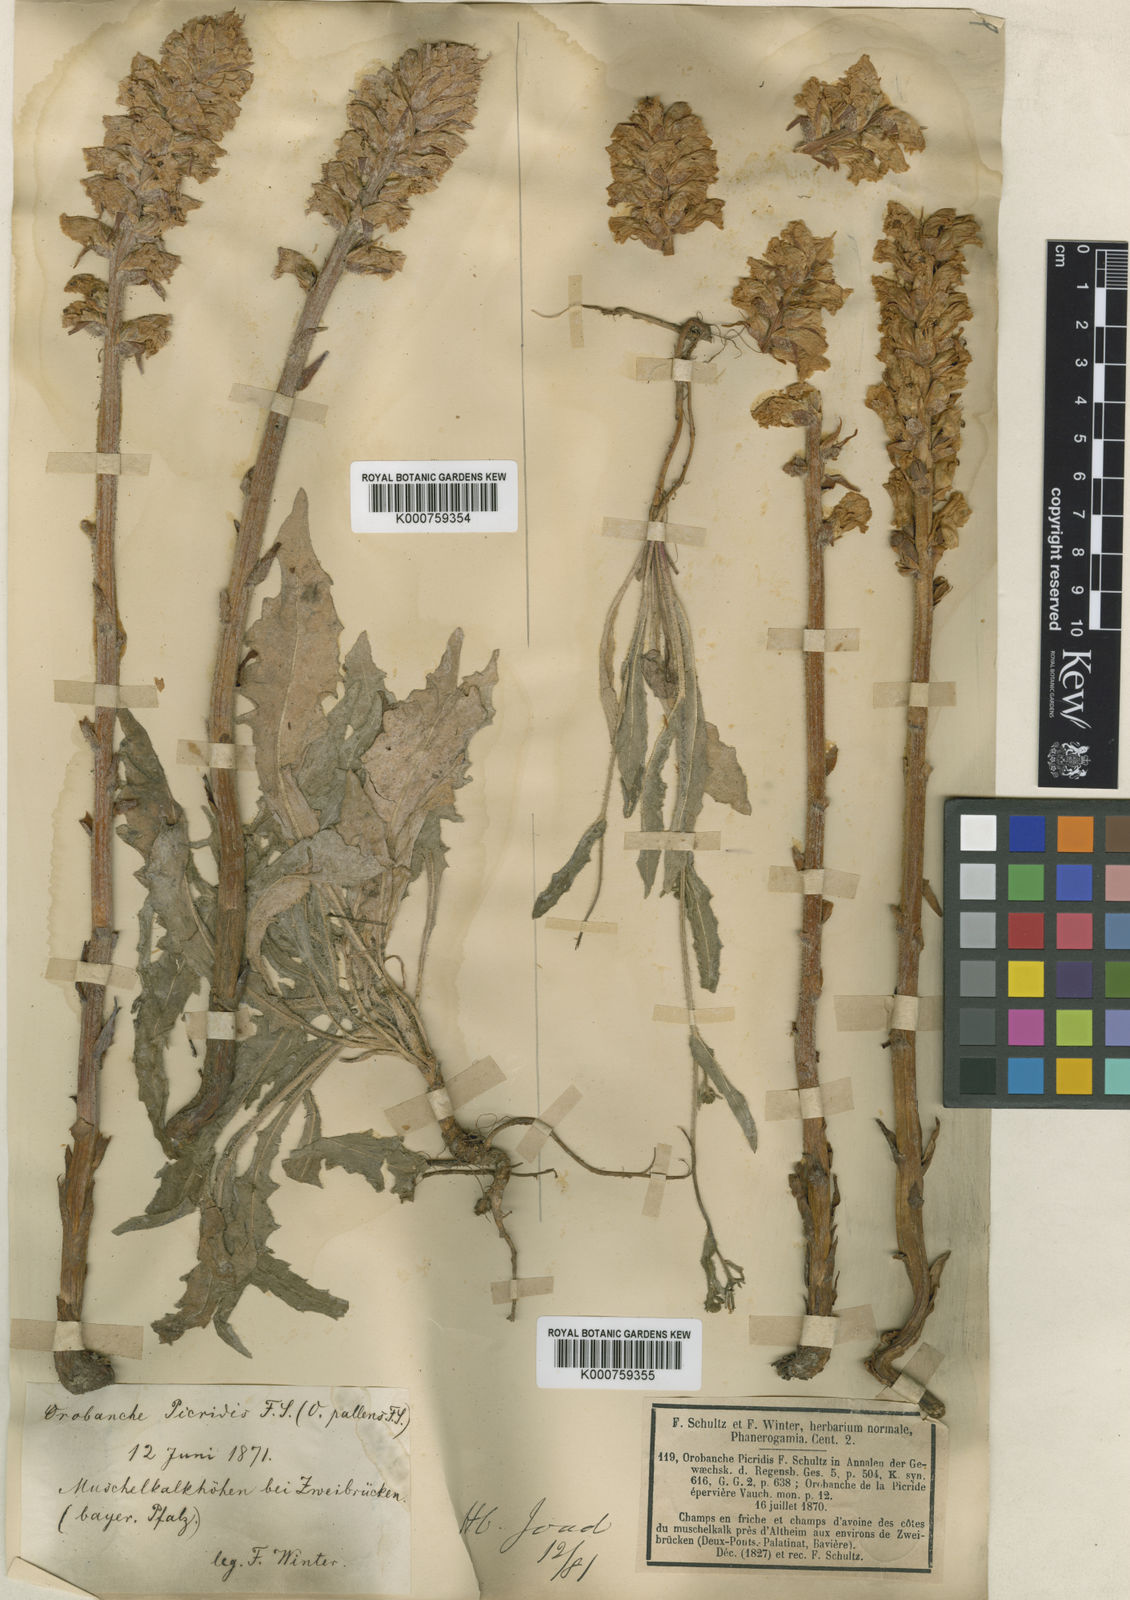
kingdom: Plantae
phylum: Tracheophyta
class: Magnoliopsida
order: Lamiales
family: Orobanchaceae
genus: Orobanche
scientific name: Orobanche picridis
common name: Oxtongue broomrape
